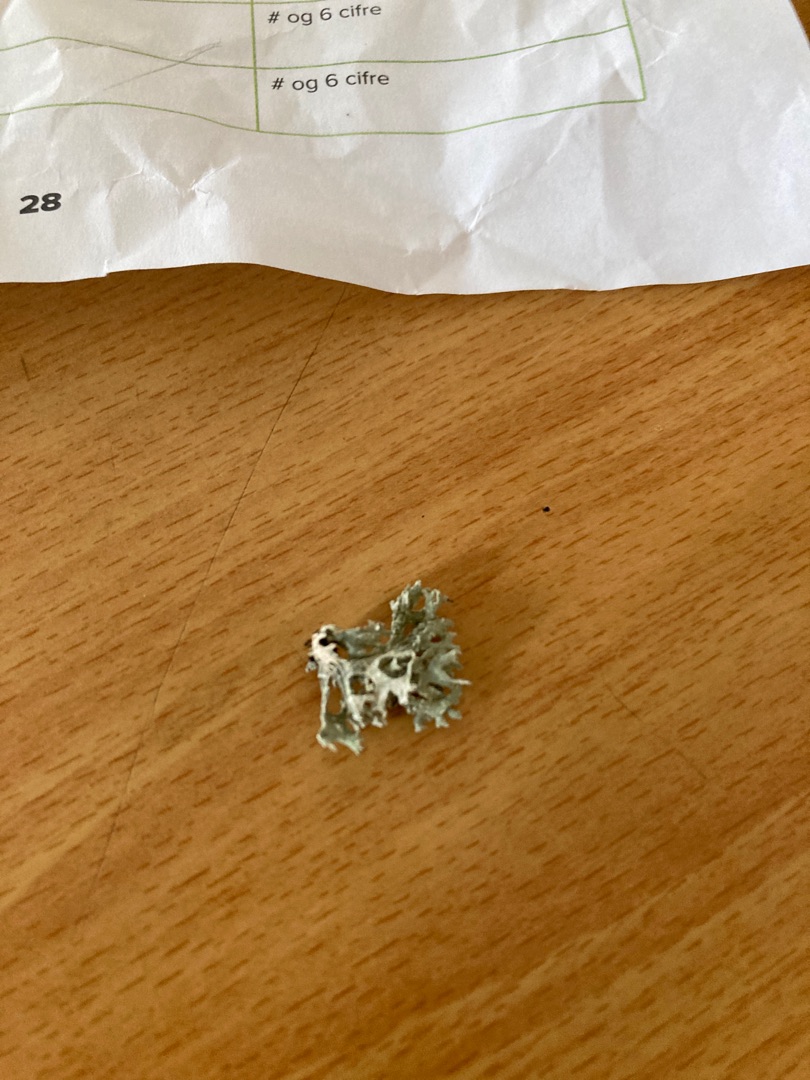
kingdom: Fungi
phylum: Ascomycota
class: Lecanoromycetes
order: Lecanorales
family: Parmeliaceae
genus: Evernia
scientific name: Evernia prunastri
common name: Almindelig slåenlav
